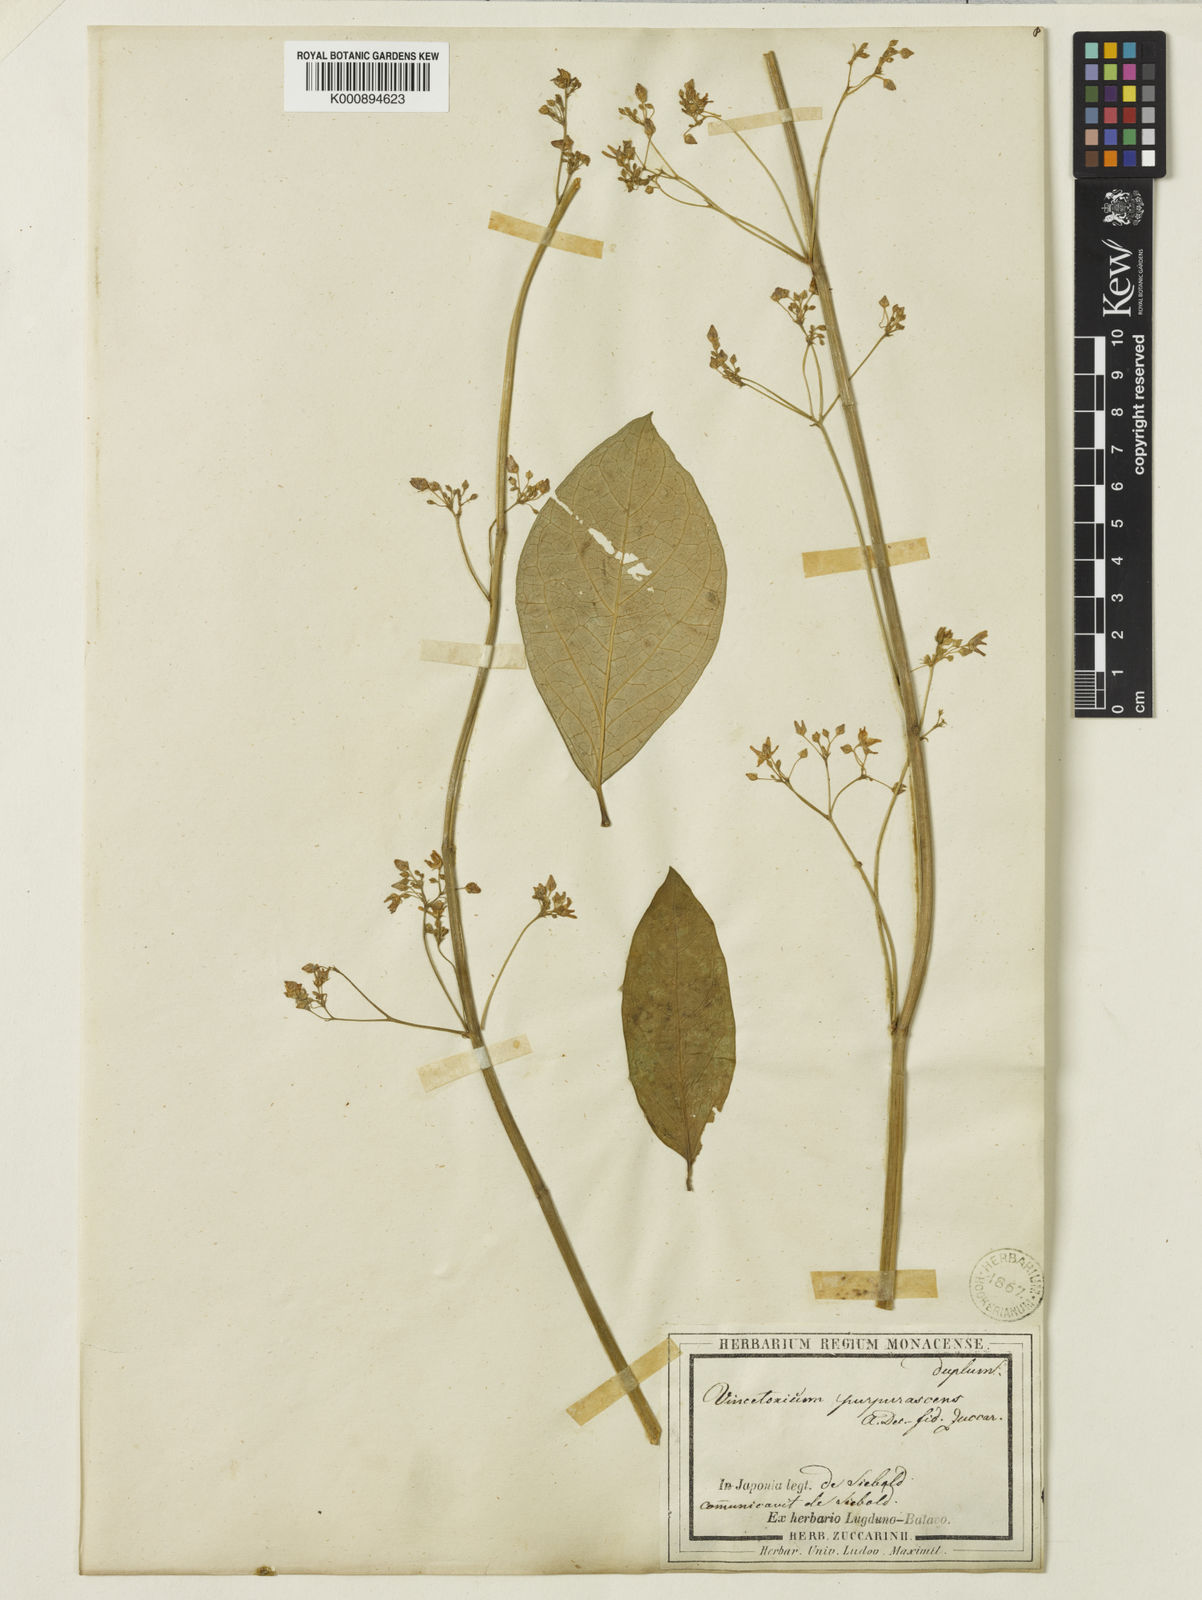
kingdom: Plantae
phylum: Tracheophyta
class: Magnoliopsida
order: Gentianales
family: Apocynaceae
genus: Vincetoxicum
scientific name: Vincetoxicum purpurascens
